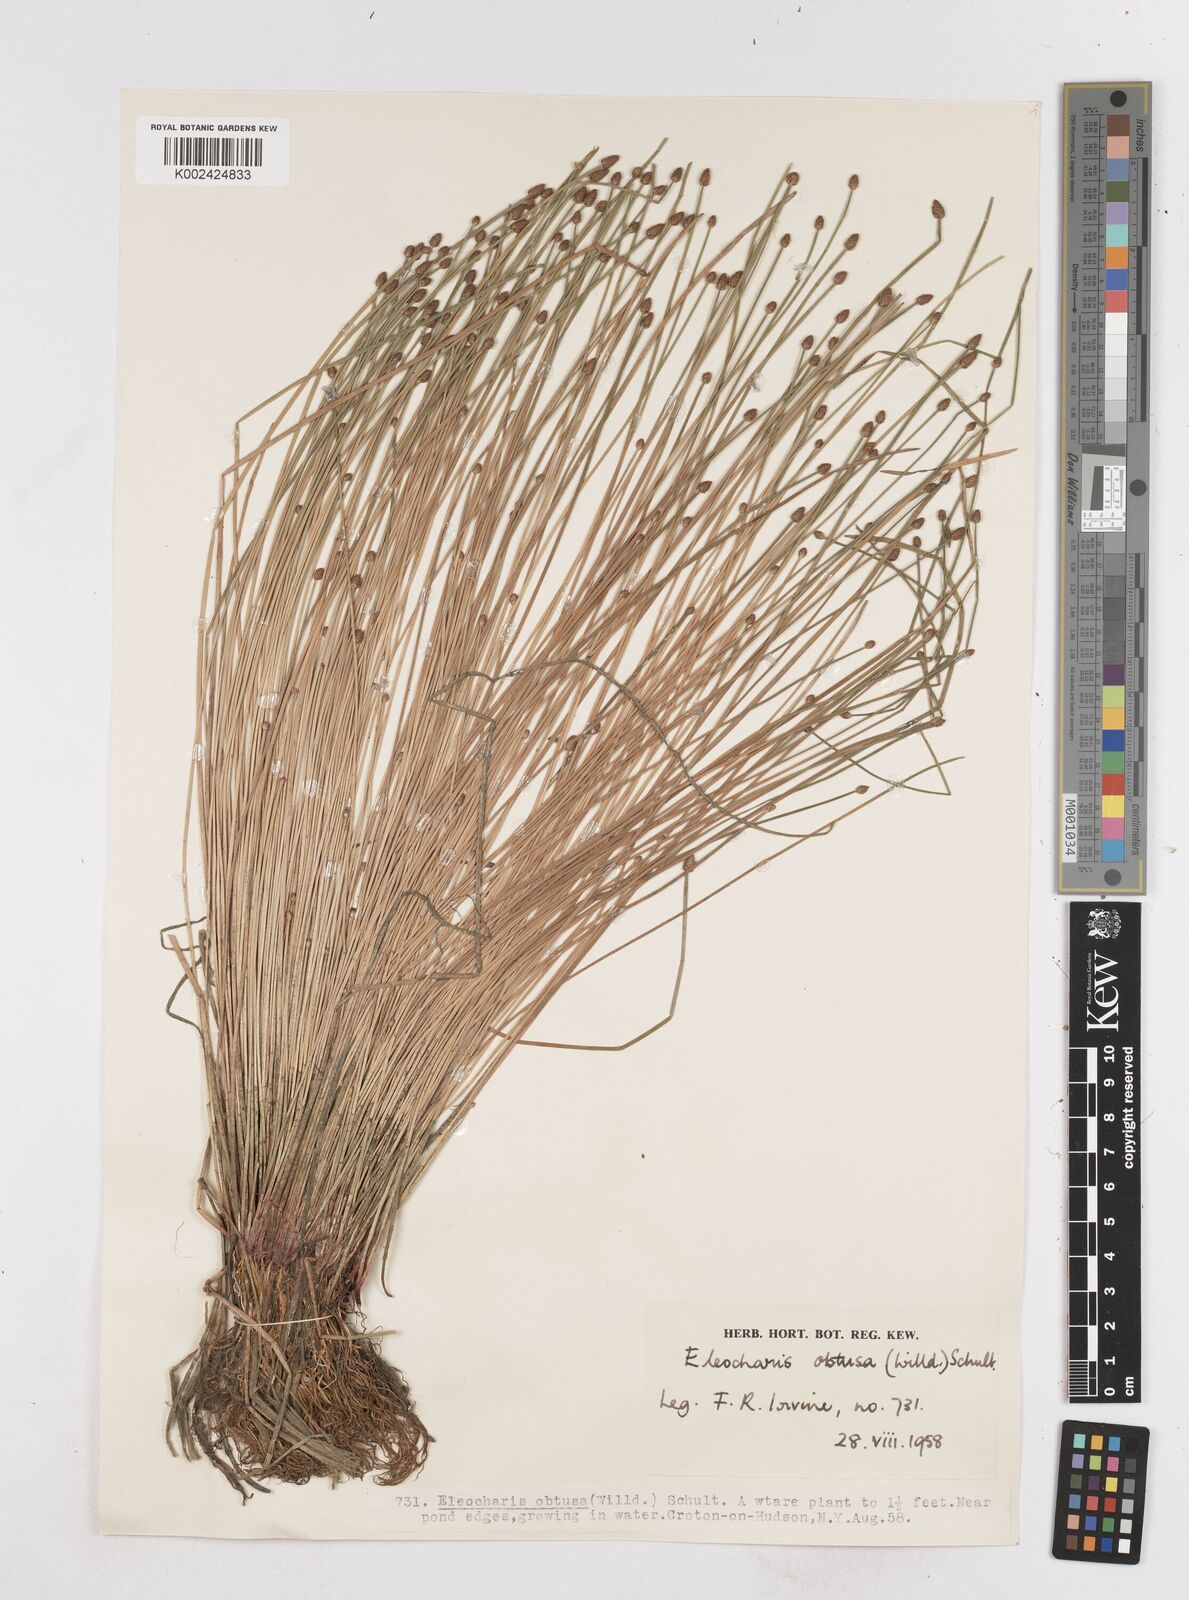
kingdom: Plantae
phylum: Tracheophyta
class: Liliopsida
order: Poales
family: Cyperaceae
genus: Eleocharis
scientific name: Eleocharis obtusa
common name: Blunt spikerush
